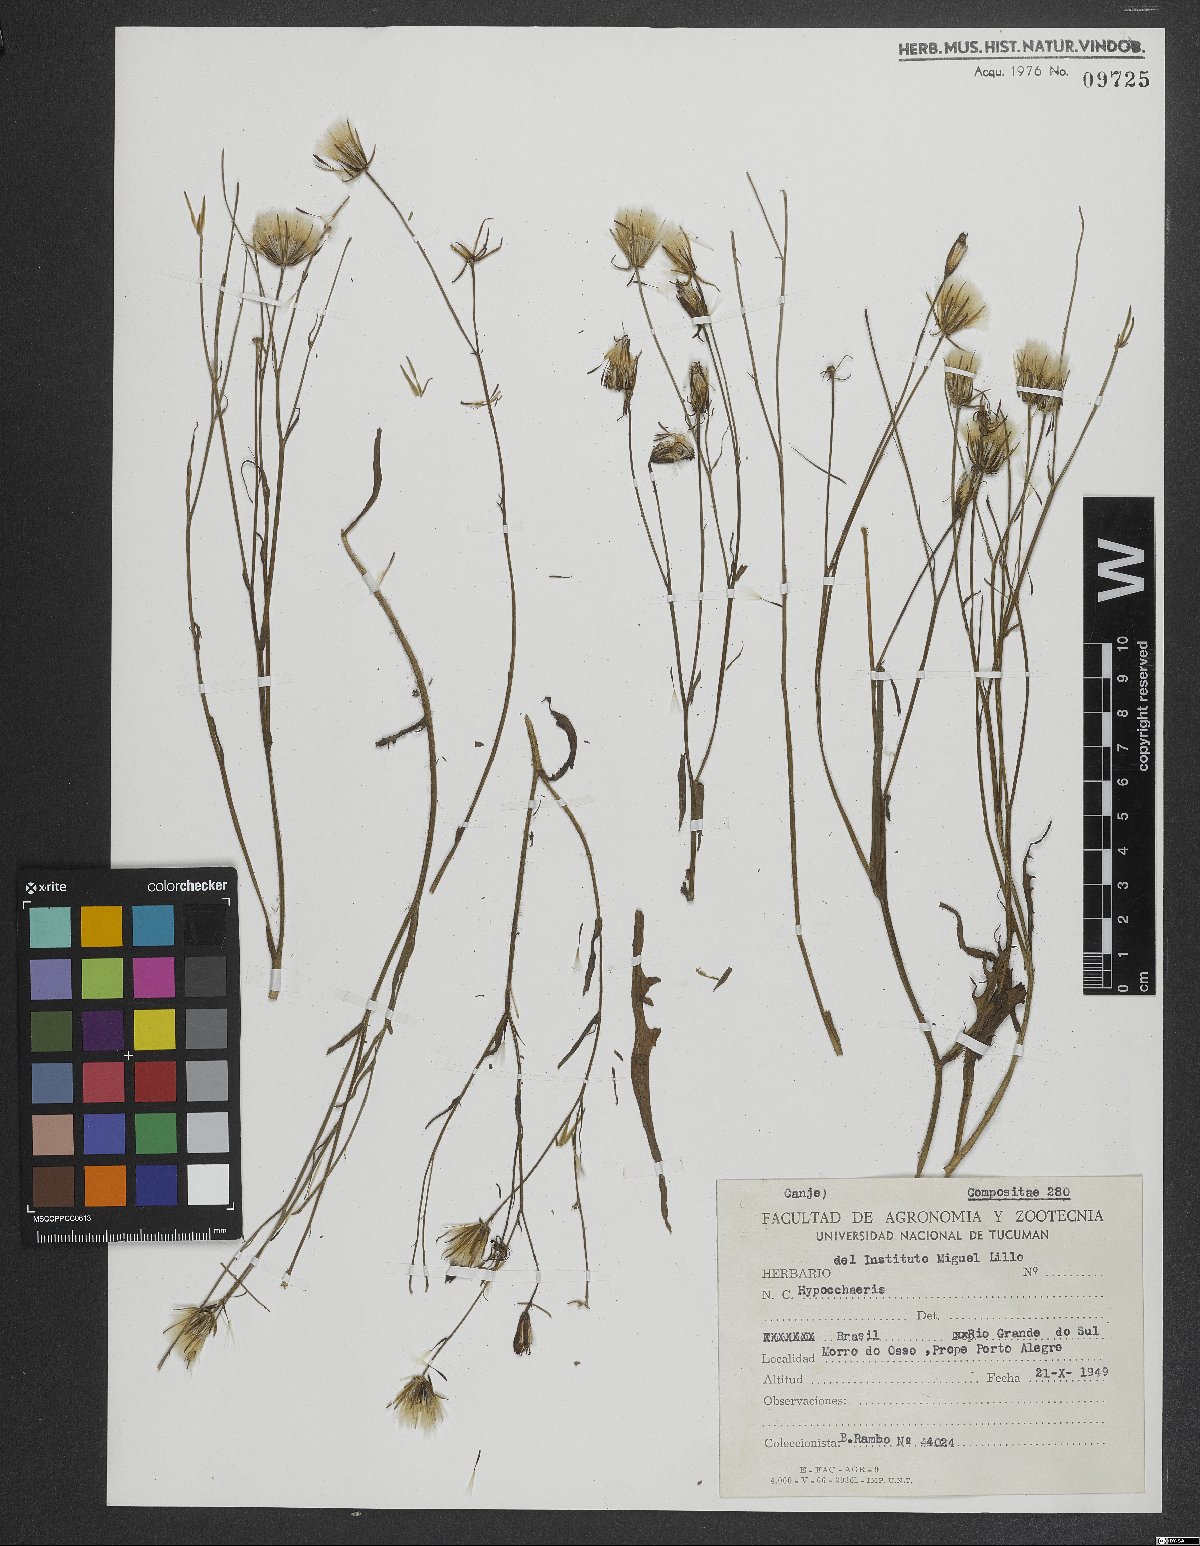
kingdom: Plantae
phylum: Tracheophyta
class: Magnoliopsida
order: Asterales
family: Asteraceae
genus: Hypochaeris
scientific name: Hypochaeris
